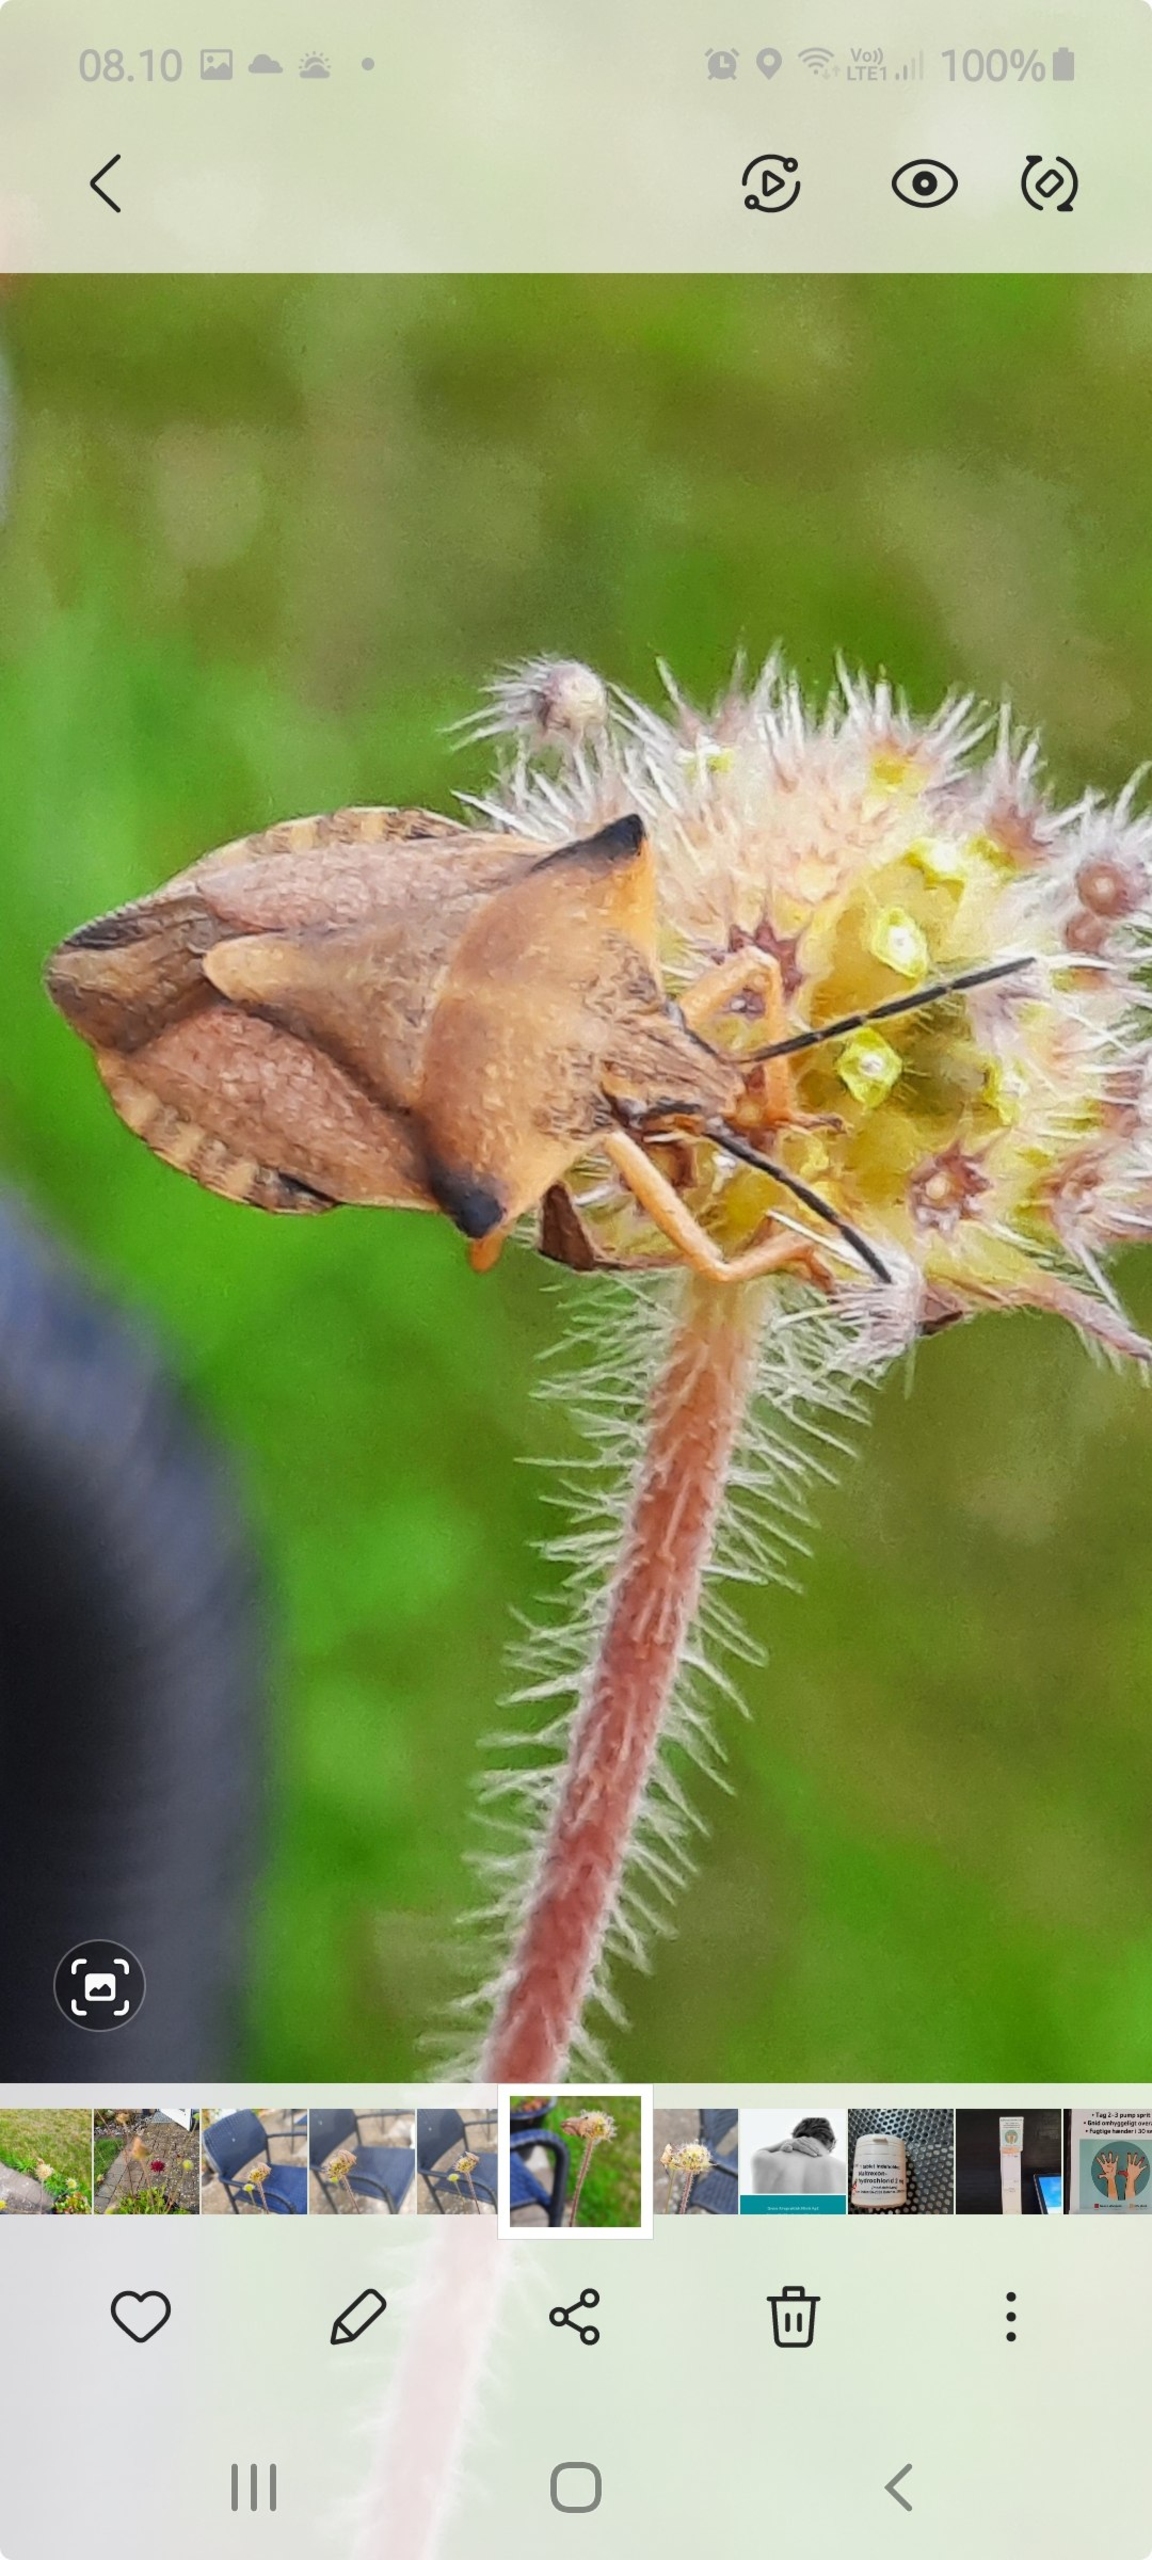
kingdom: Animalia
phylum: Arthropoda
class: Insecta
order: Hemiptera
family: Pentatomidae
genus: Carpocoris
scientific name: Carpocoris fuscispinus
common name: Glat bredtæge
